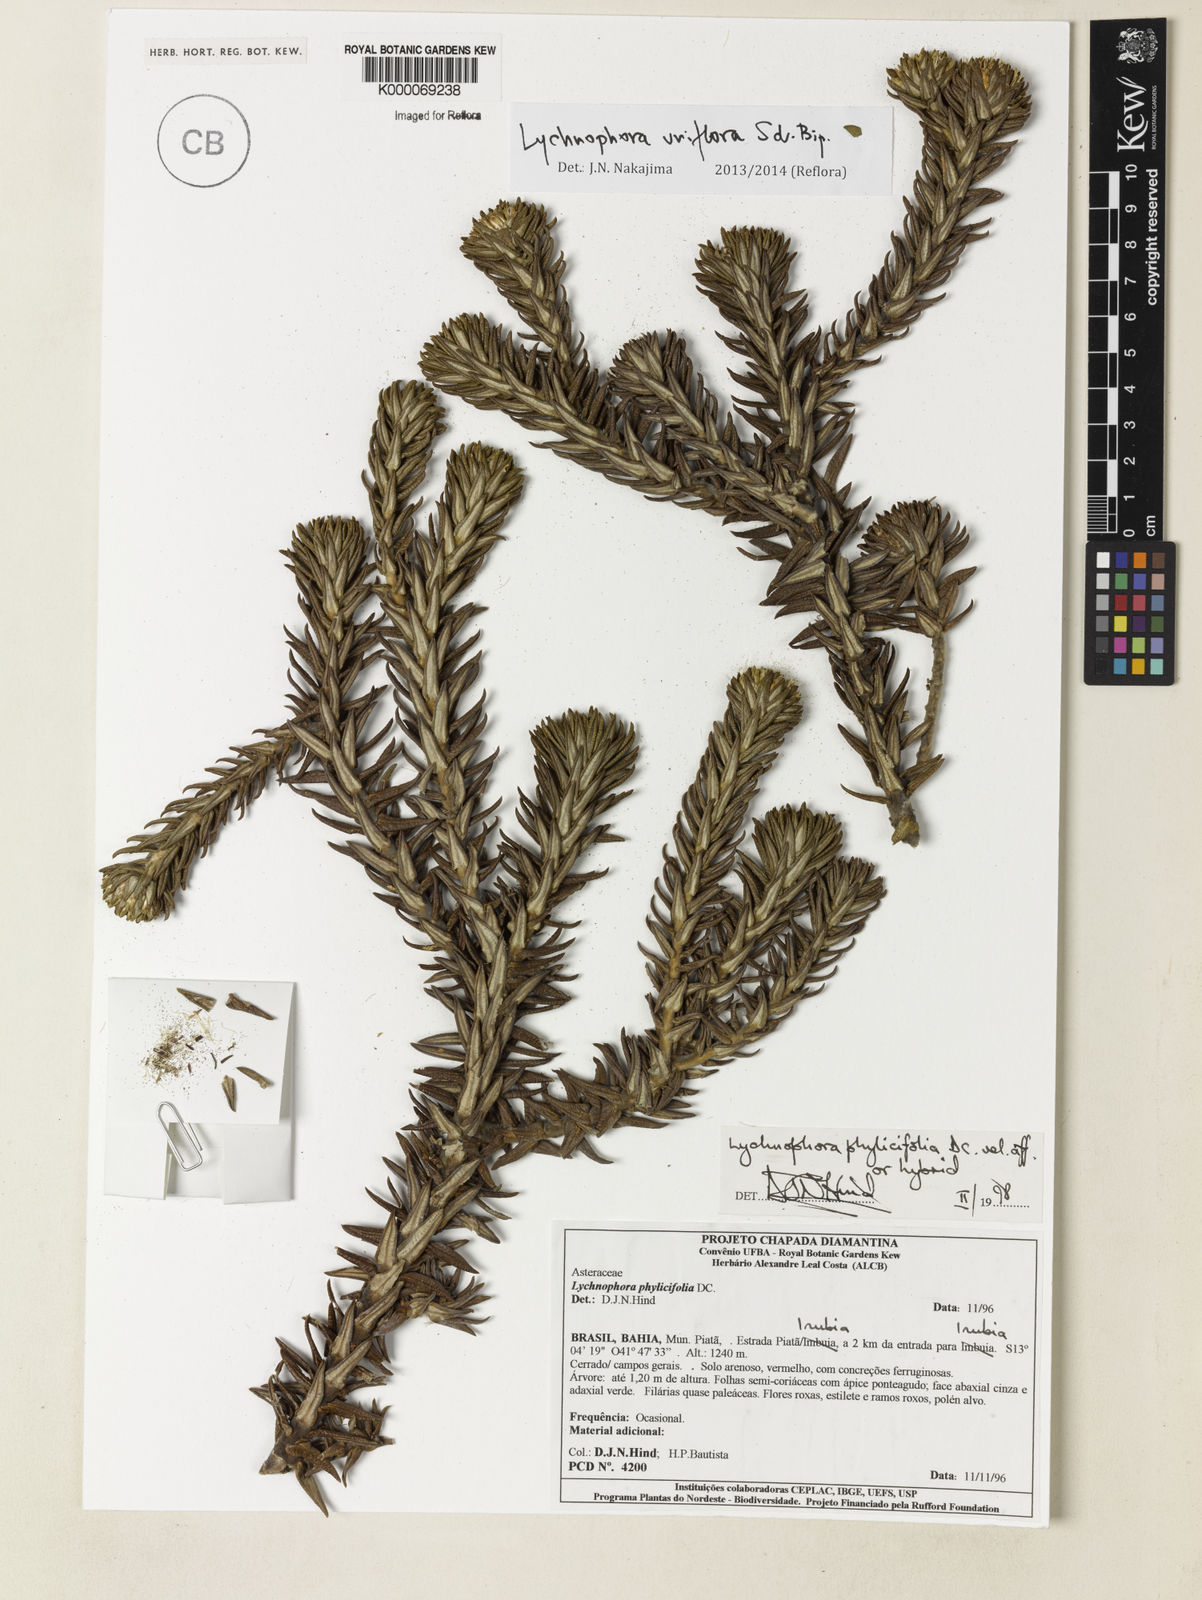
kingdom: Plantae
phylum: Tracheophyta
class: Magnoliopsida
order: Asterales
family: Asteraceae
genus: Lychnophora
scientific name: Lychnophora phylicifolia
